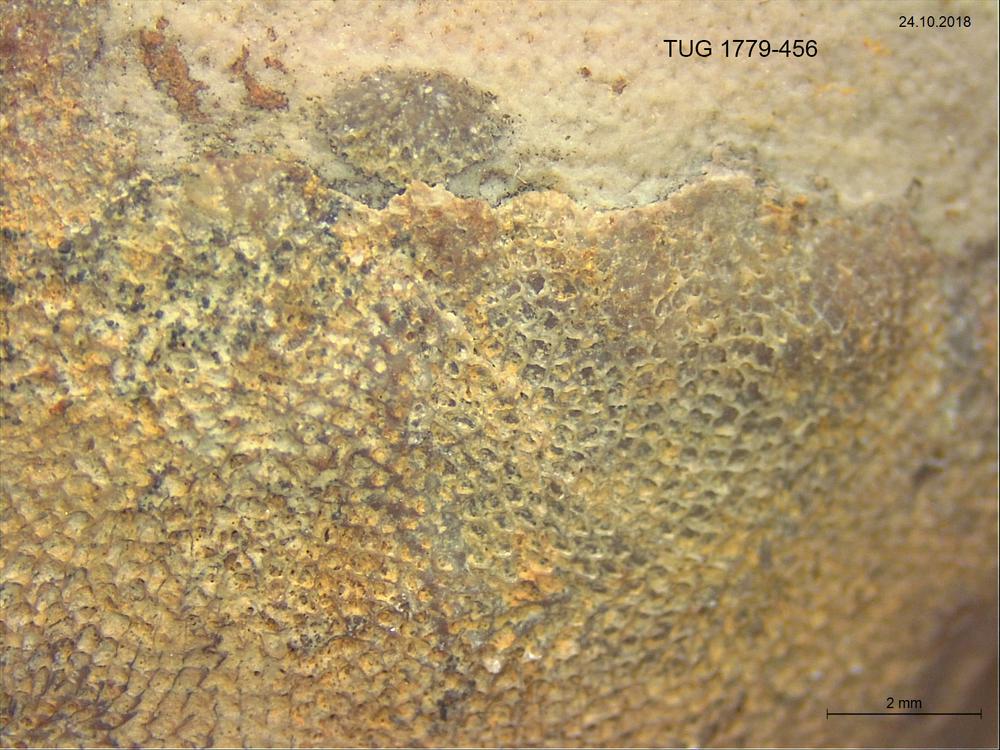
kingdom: Animalia
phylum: Bryozoa
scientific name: Bryozoa
